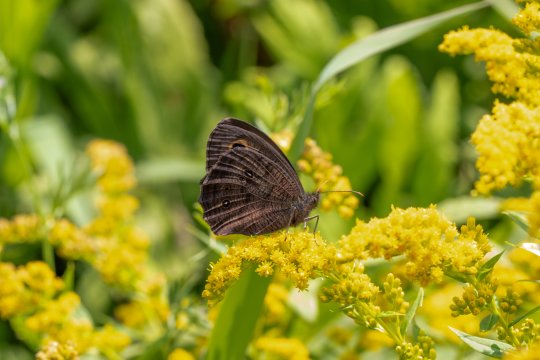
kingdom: Animalia
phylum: Arthropoda
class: Insecta
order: Lepidoptera
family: Nymphalidae
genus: Cercyonis
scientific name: Cercyonis pegala
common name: Common Wood-Nymph
